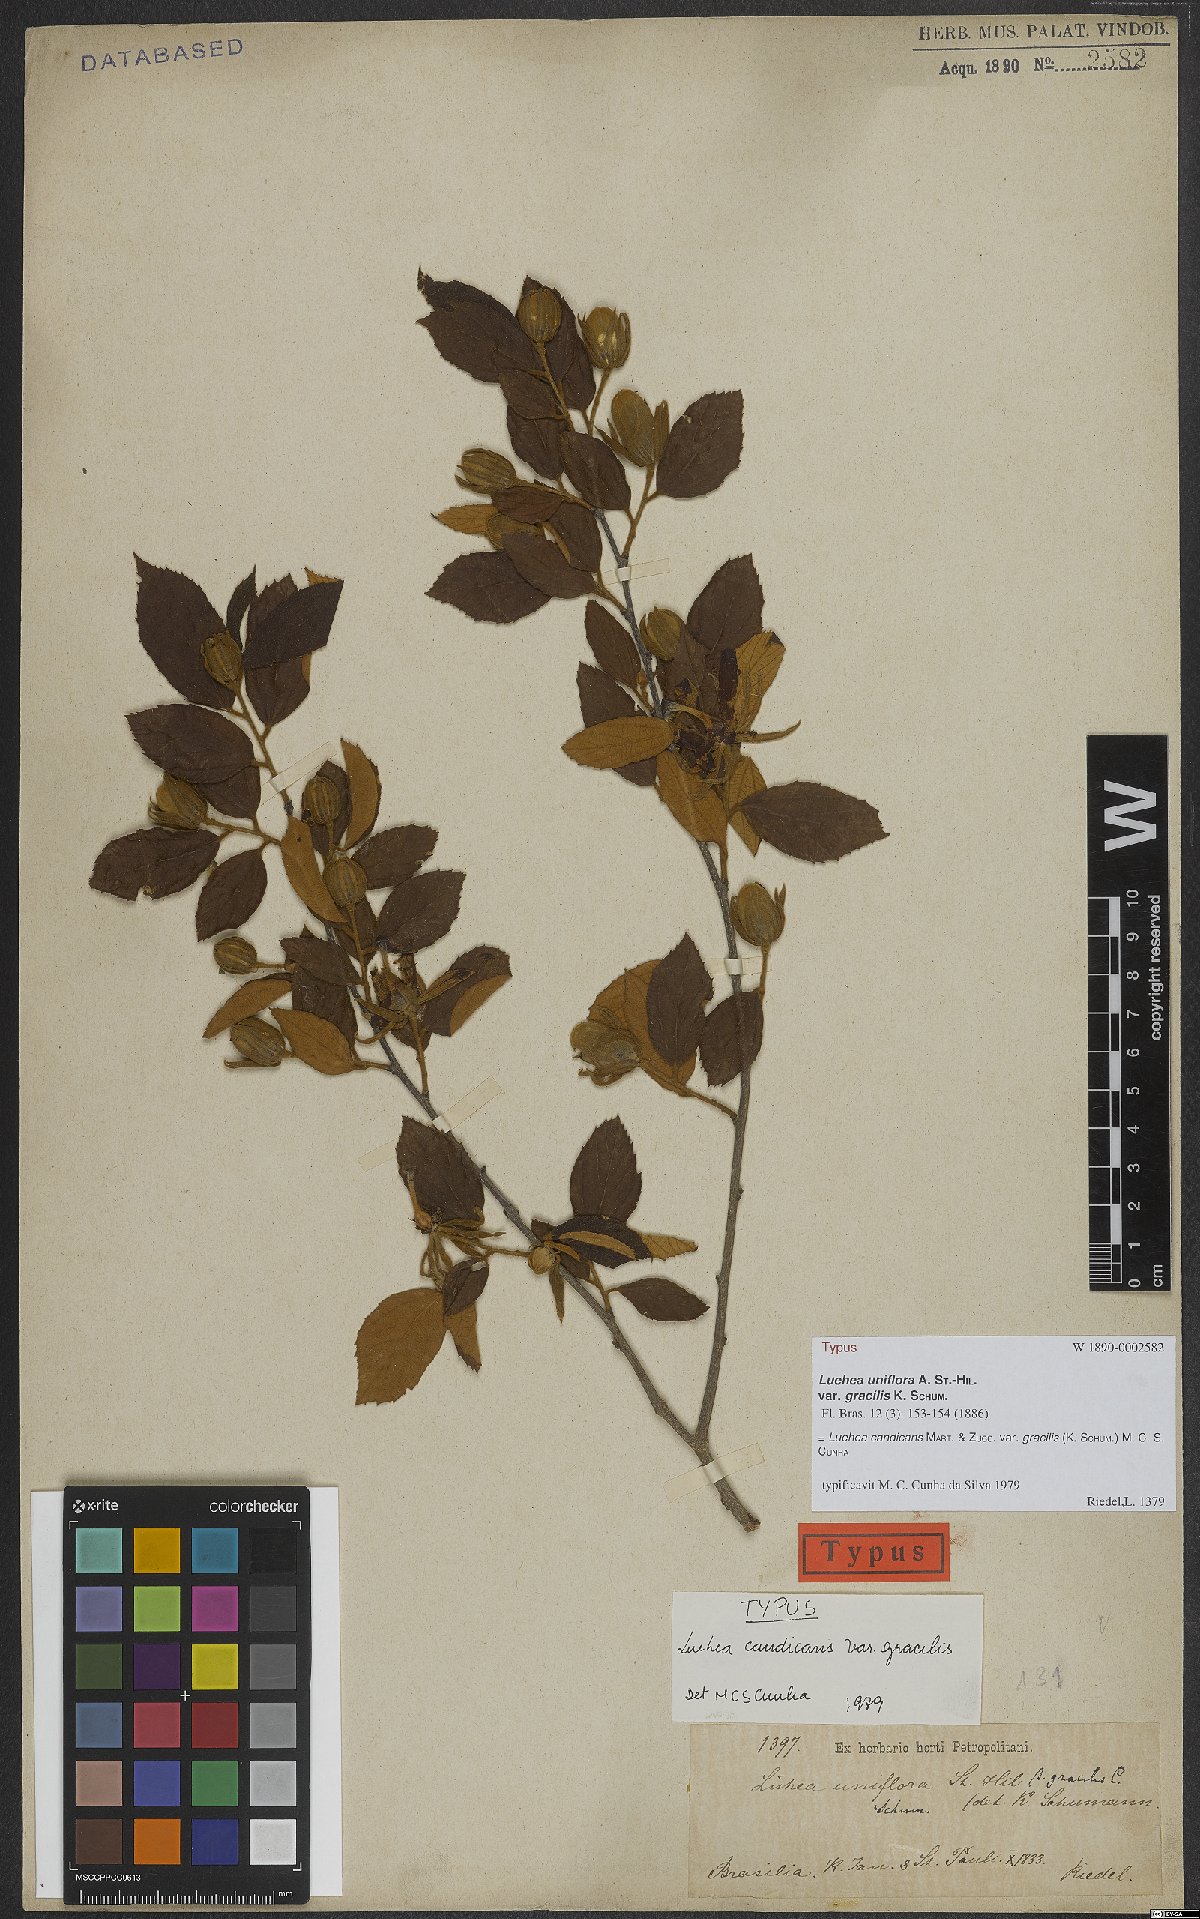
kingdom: Plantae
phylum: Tracheophyta
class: Magnoliopsida
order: Malvales
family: Malvaceae
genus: Luehea
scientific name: Luehea candicans
